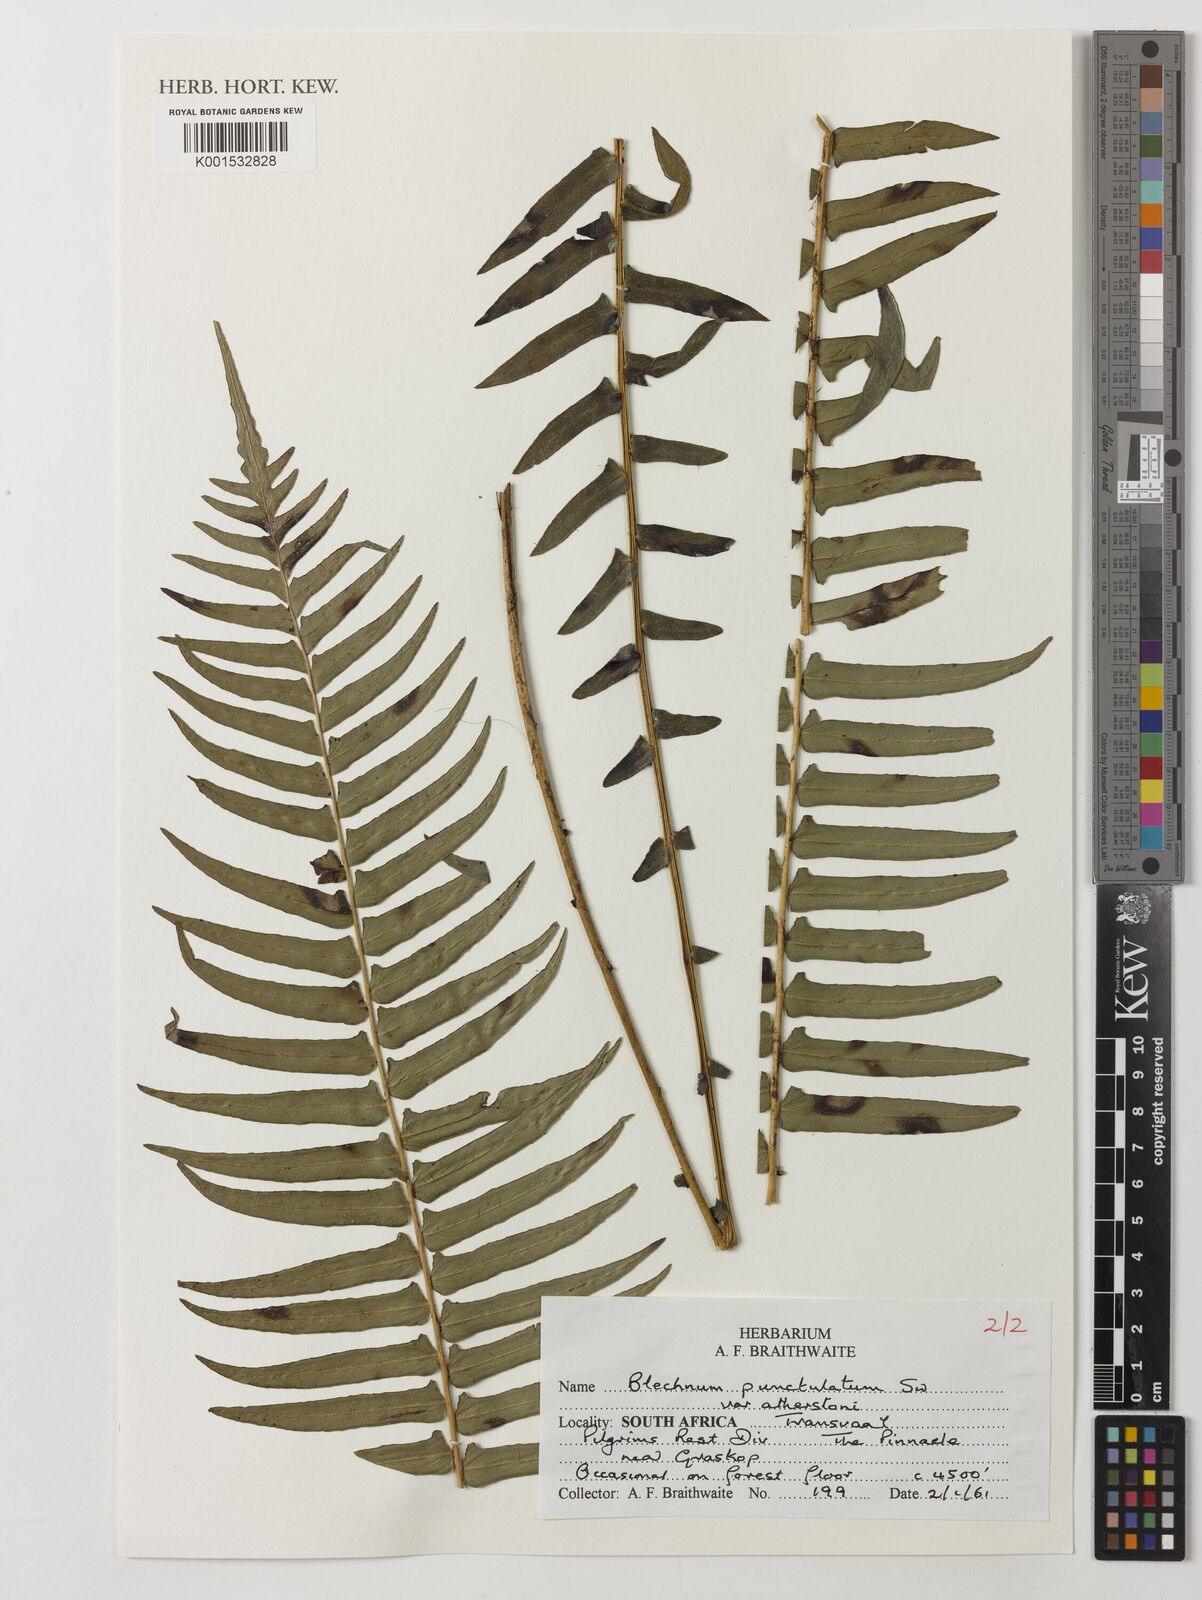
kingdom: Plantae
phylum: Tracheophyta
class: Polypodiopsida
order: Polypodiales
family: Blechnaceae
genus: Blechnum
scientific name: Blechnum punctulatum
